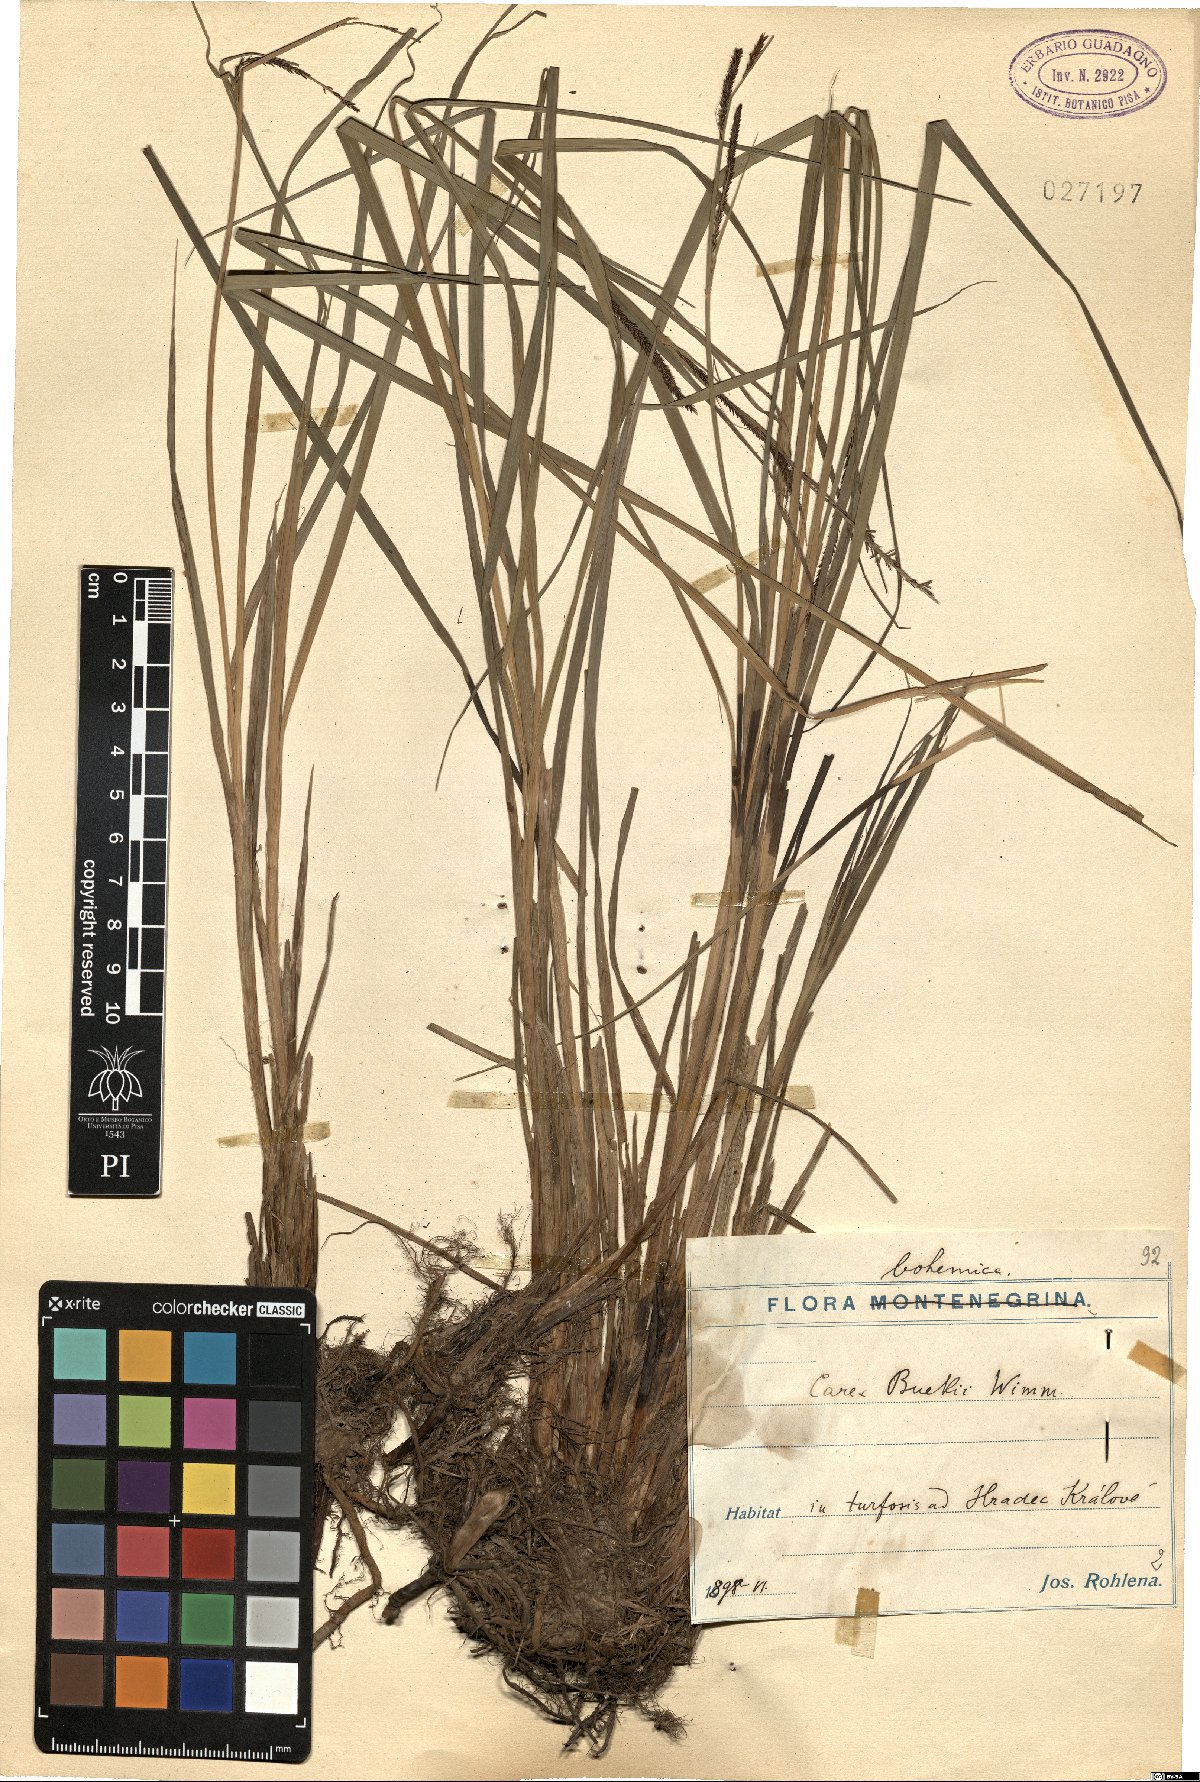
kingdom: Plantae
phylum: Tracheophyta
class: Liliopsida
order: Poales
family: Cyperaceae
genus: Carex
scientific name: Carex buekii
